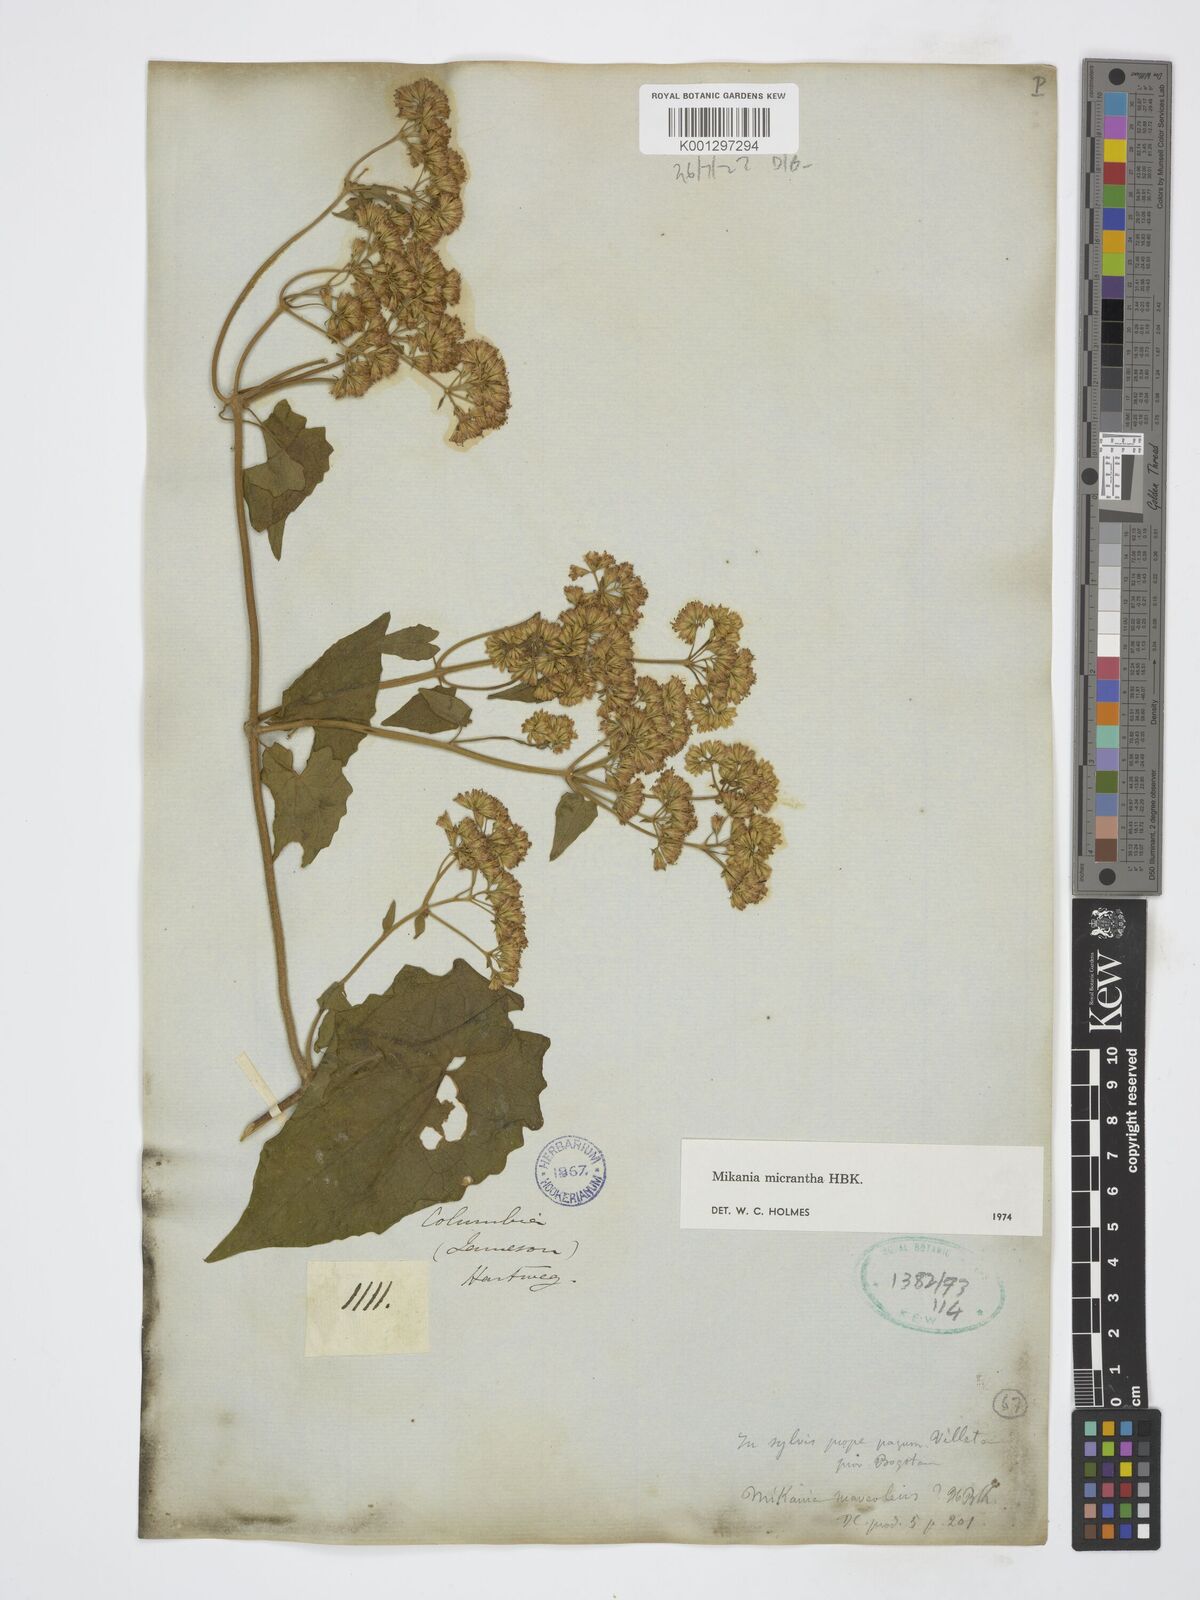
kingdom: Plantae
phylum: Tracheophyta
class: Magnoliopsida
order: Asterales
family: Asteraceae
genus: Mikania
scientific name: Mikania micrantha
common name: Mile-a-minute
